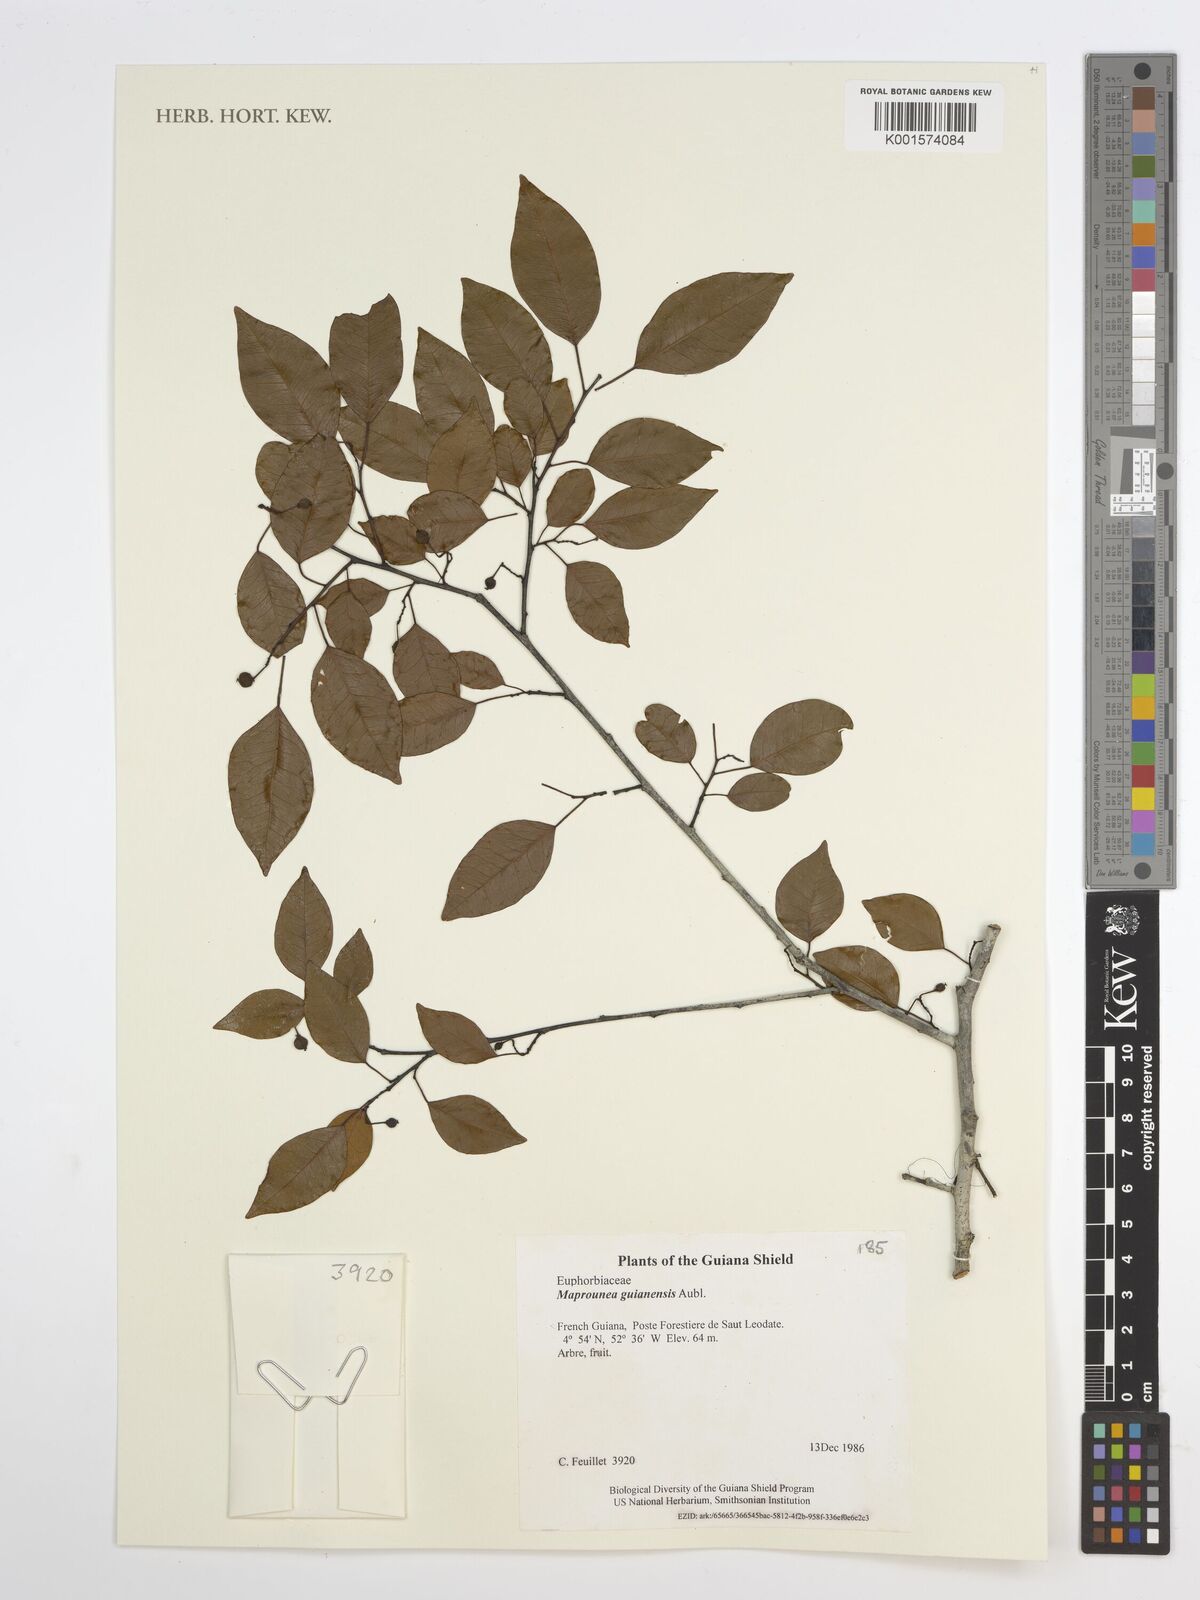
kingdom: Plantae
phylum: Tracheophyta
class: Magnoliopsida
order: Malpighiales
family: Euphorbiaceae
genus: Maprounea
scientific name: Maprounea guianensis
